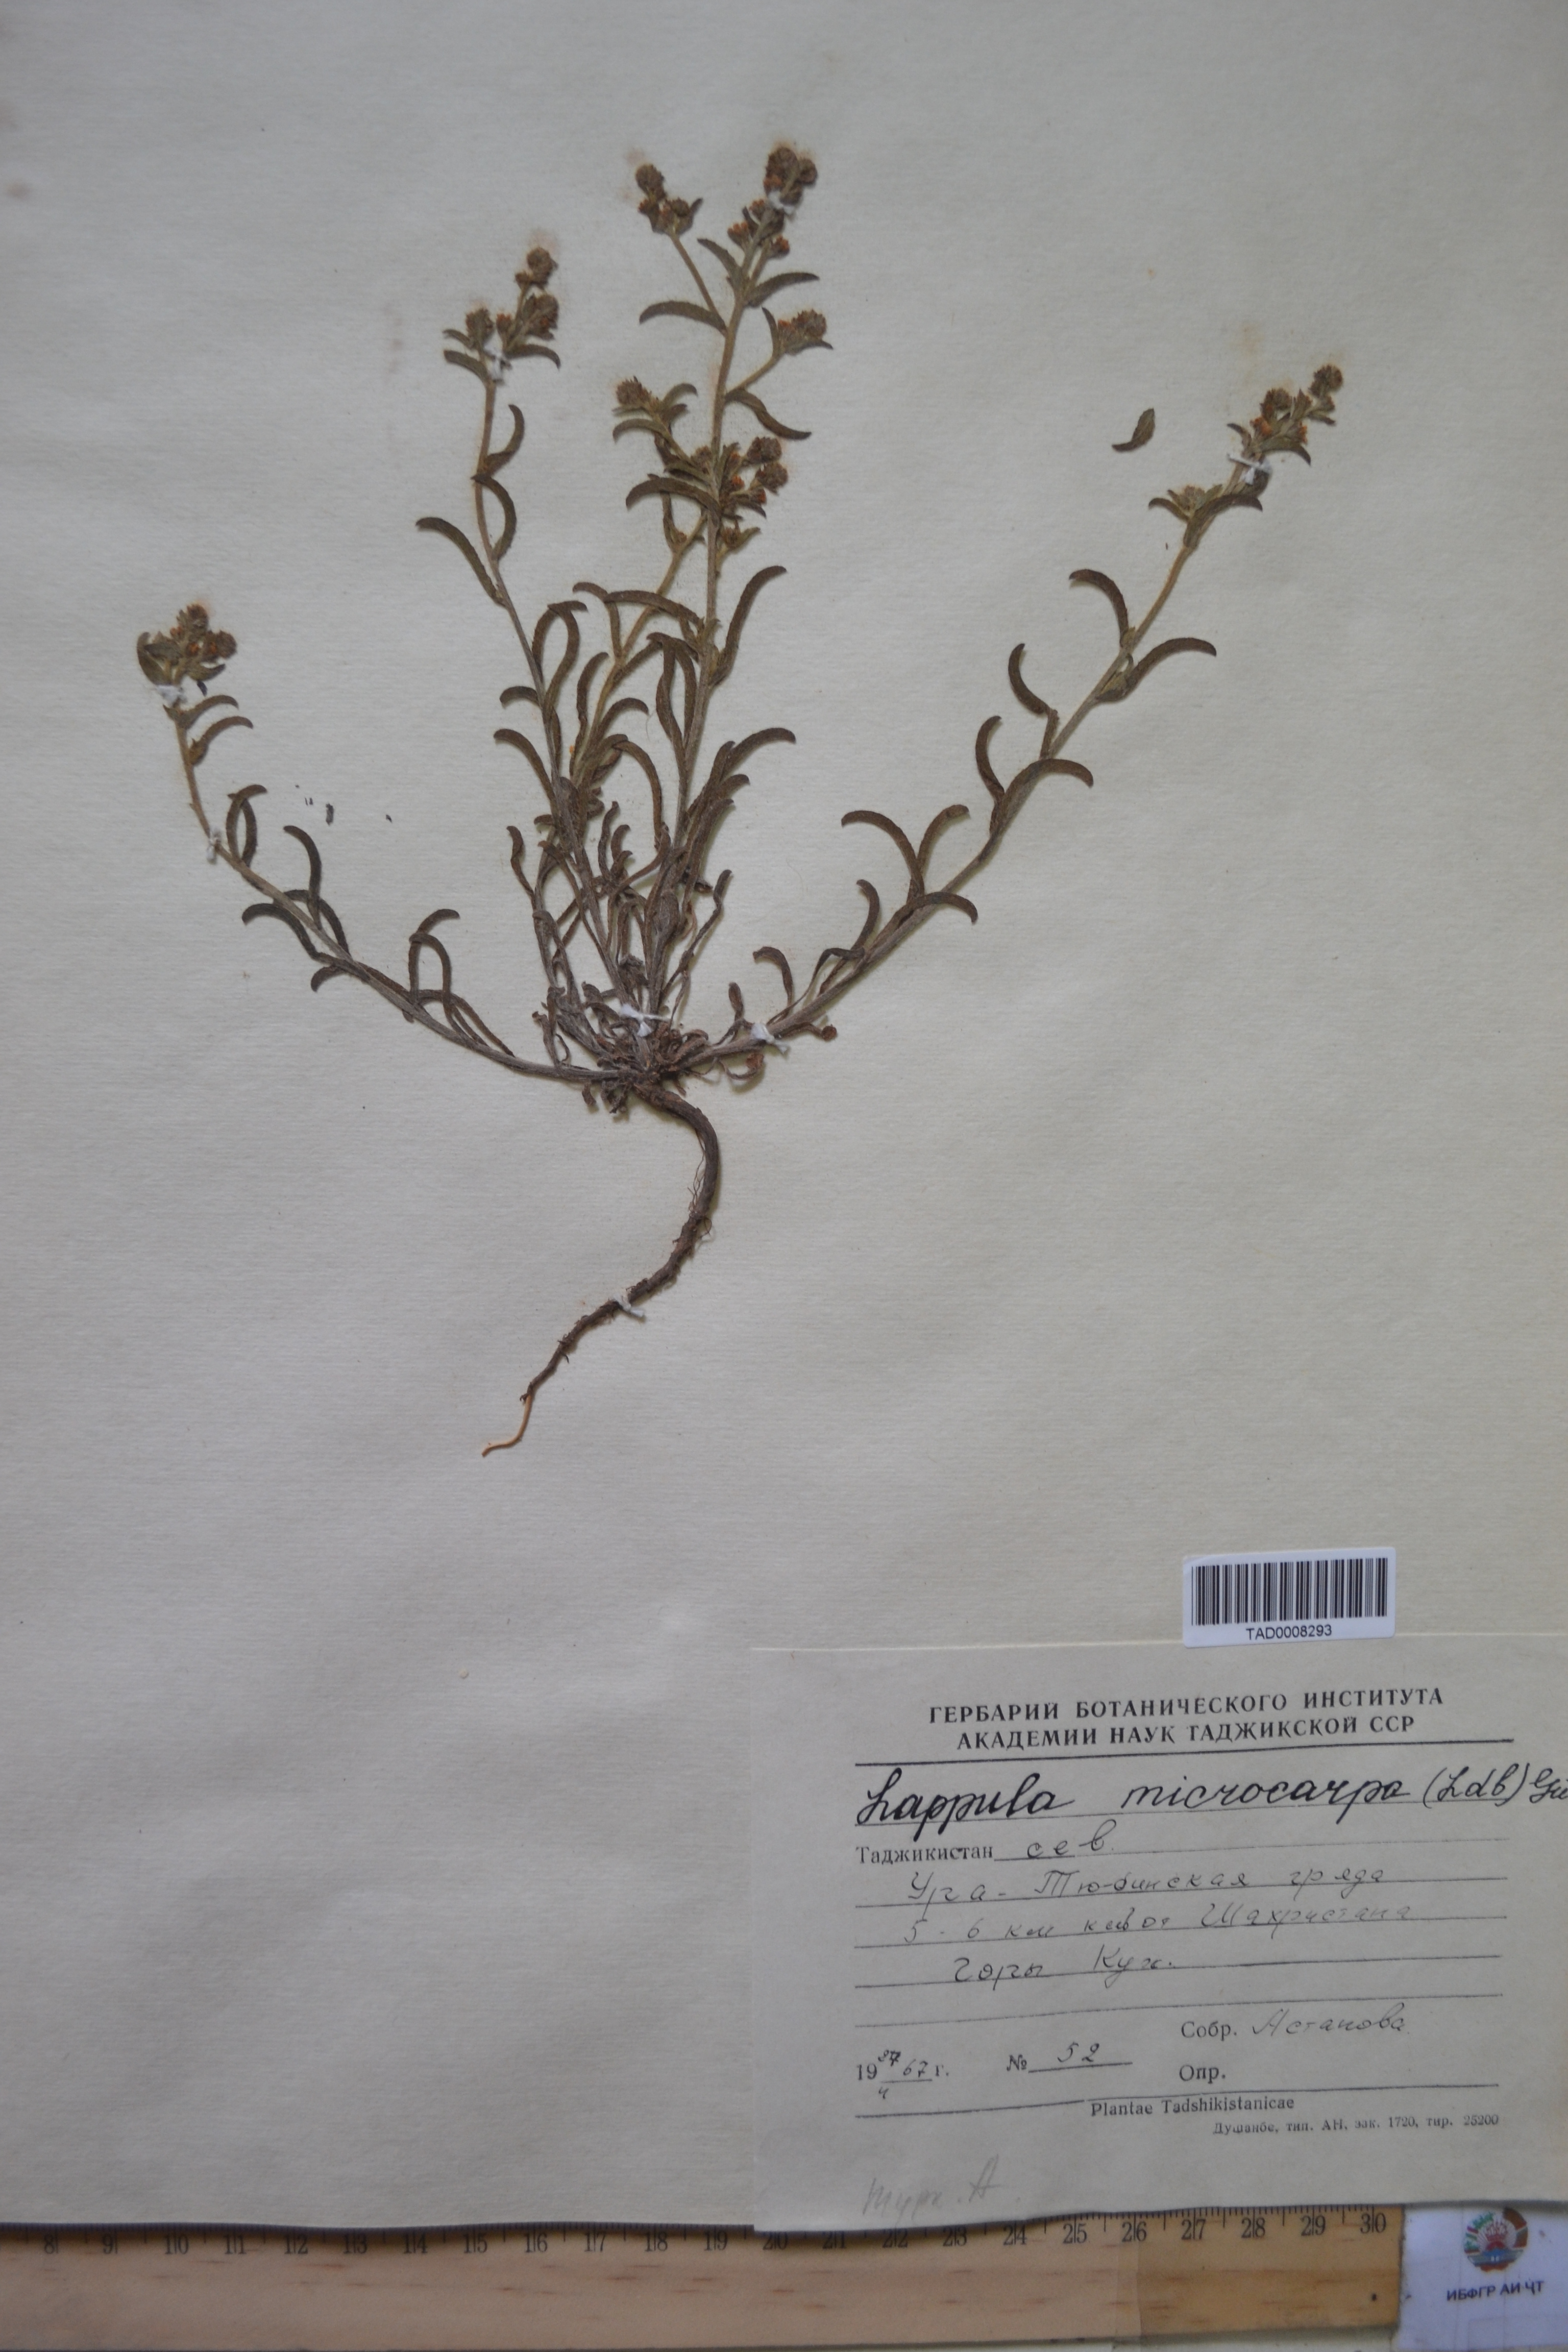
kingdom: Plantae
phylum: Tracheophyta
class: Magnoliopsida
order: Boraginales
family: Boraginaceae
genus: Lappula
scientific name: Lappula microcarpa
